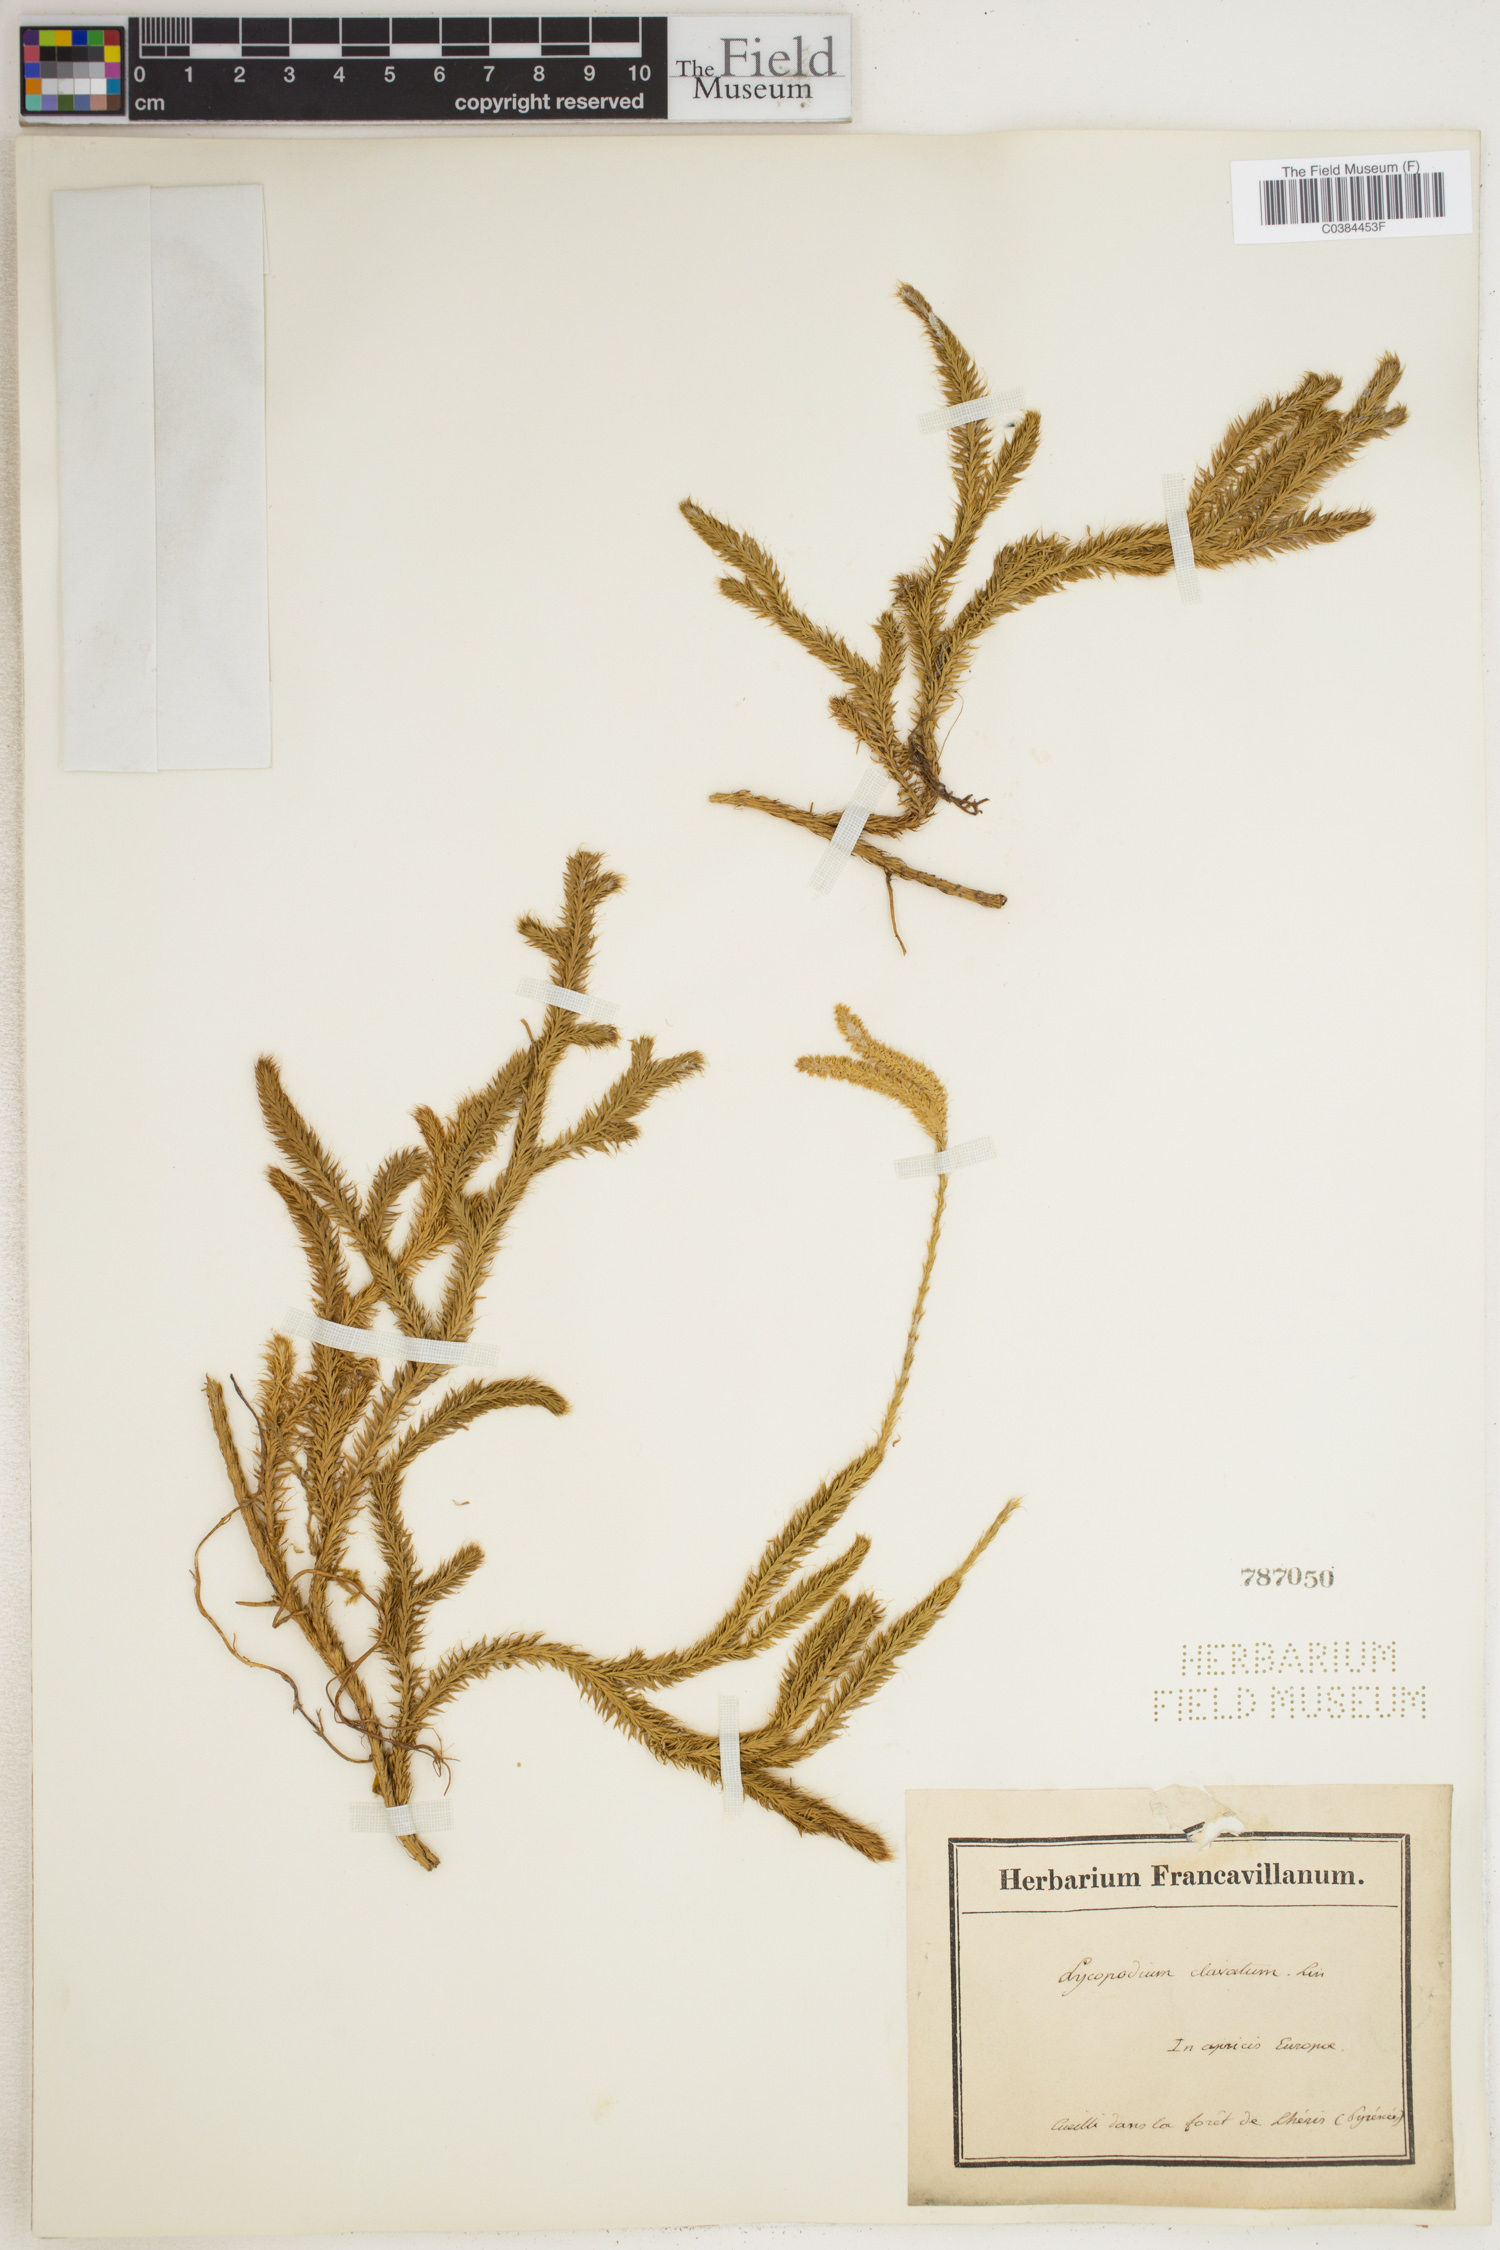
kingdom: Plantae
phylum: Tracheophyta
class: Lycopodiopsida
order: Lycopodiales
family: Lycopodiaceae
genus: Lycopodium
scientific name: Lycopodium clavatum
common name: Stag's-horn clubmoss
